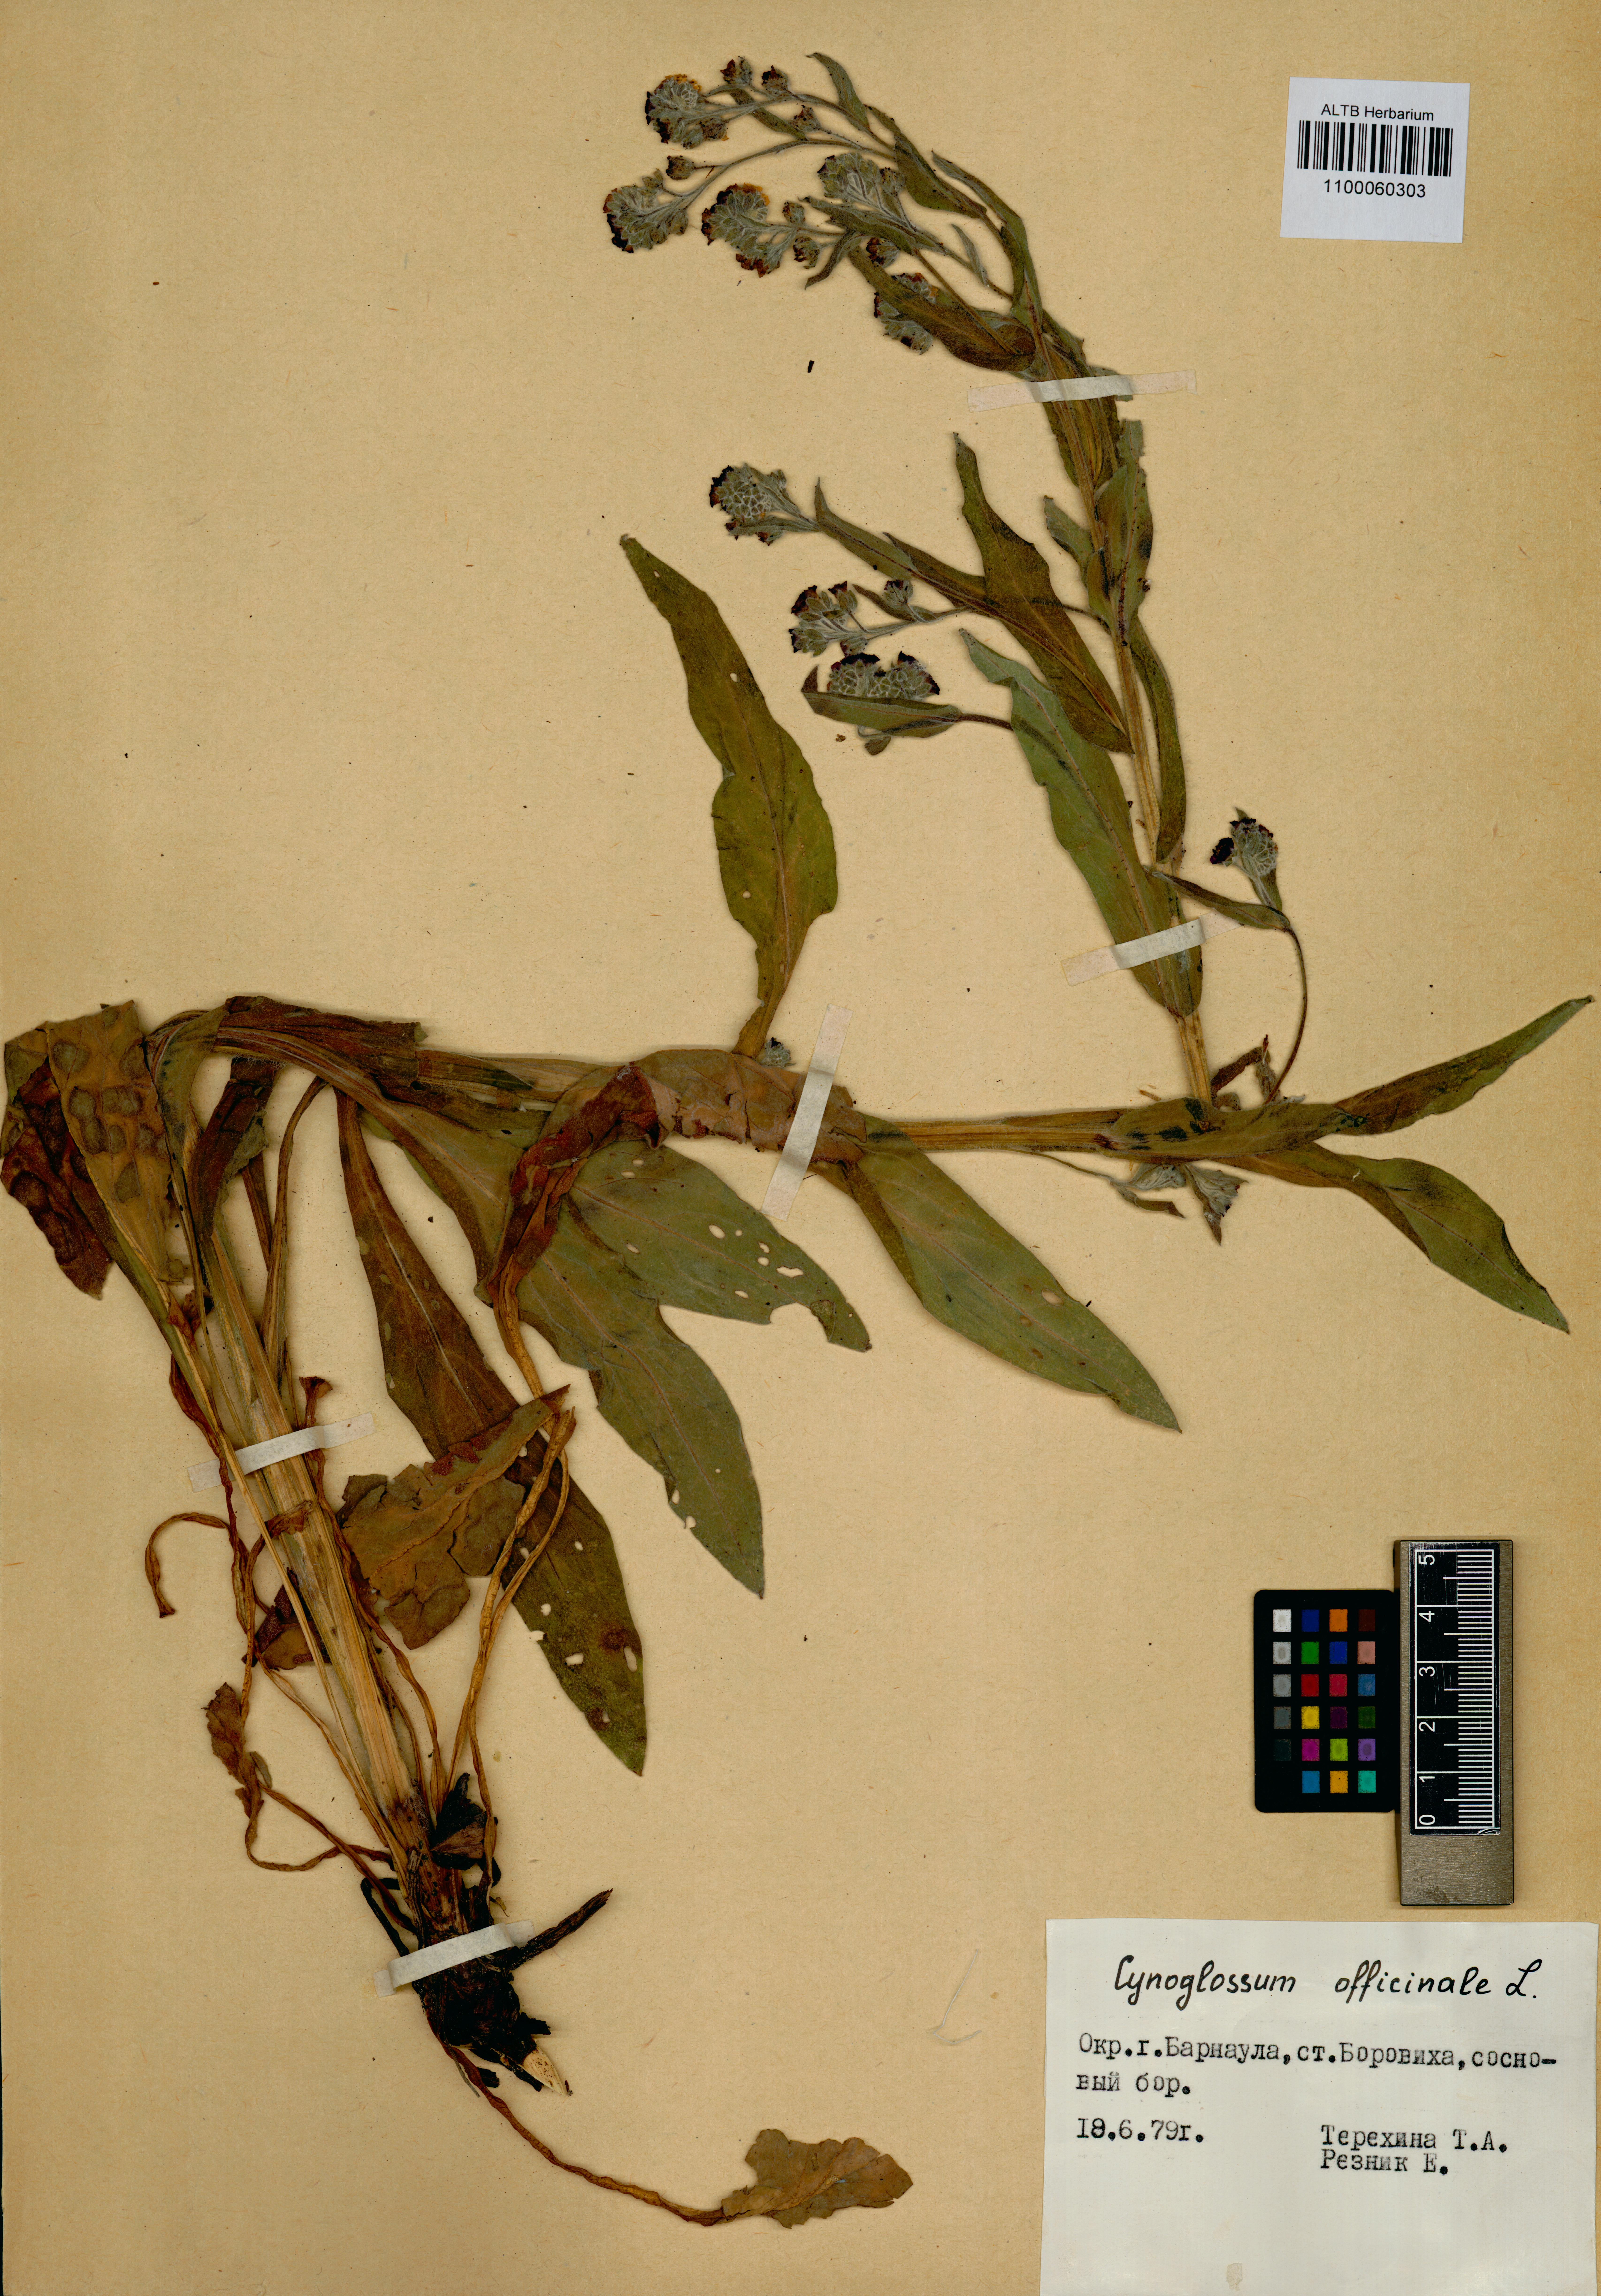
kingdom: Plantae
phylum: Tracheophyta
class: Magnoliopsida
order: Boraginales
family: Boraginaceae
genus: Cynoglossum
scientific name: Cynoglossum officinale
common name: Hound's-tongue
